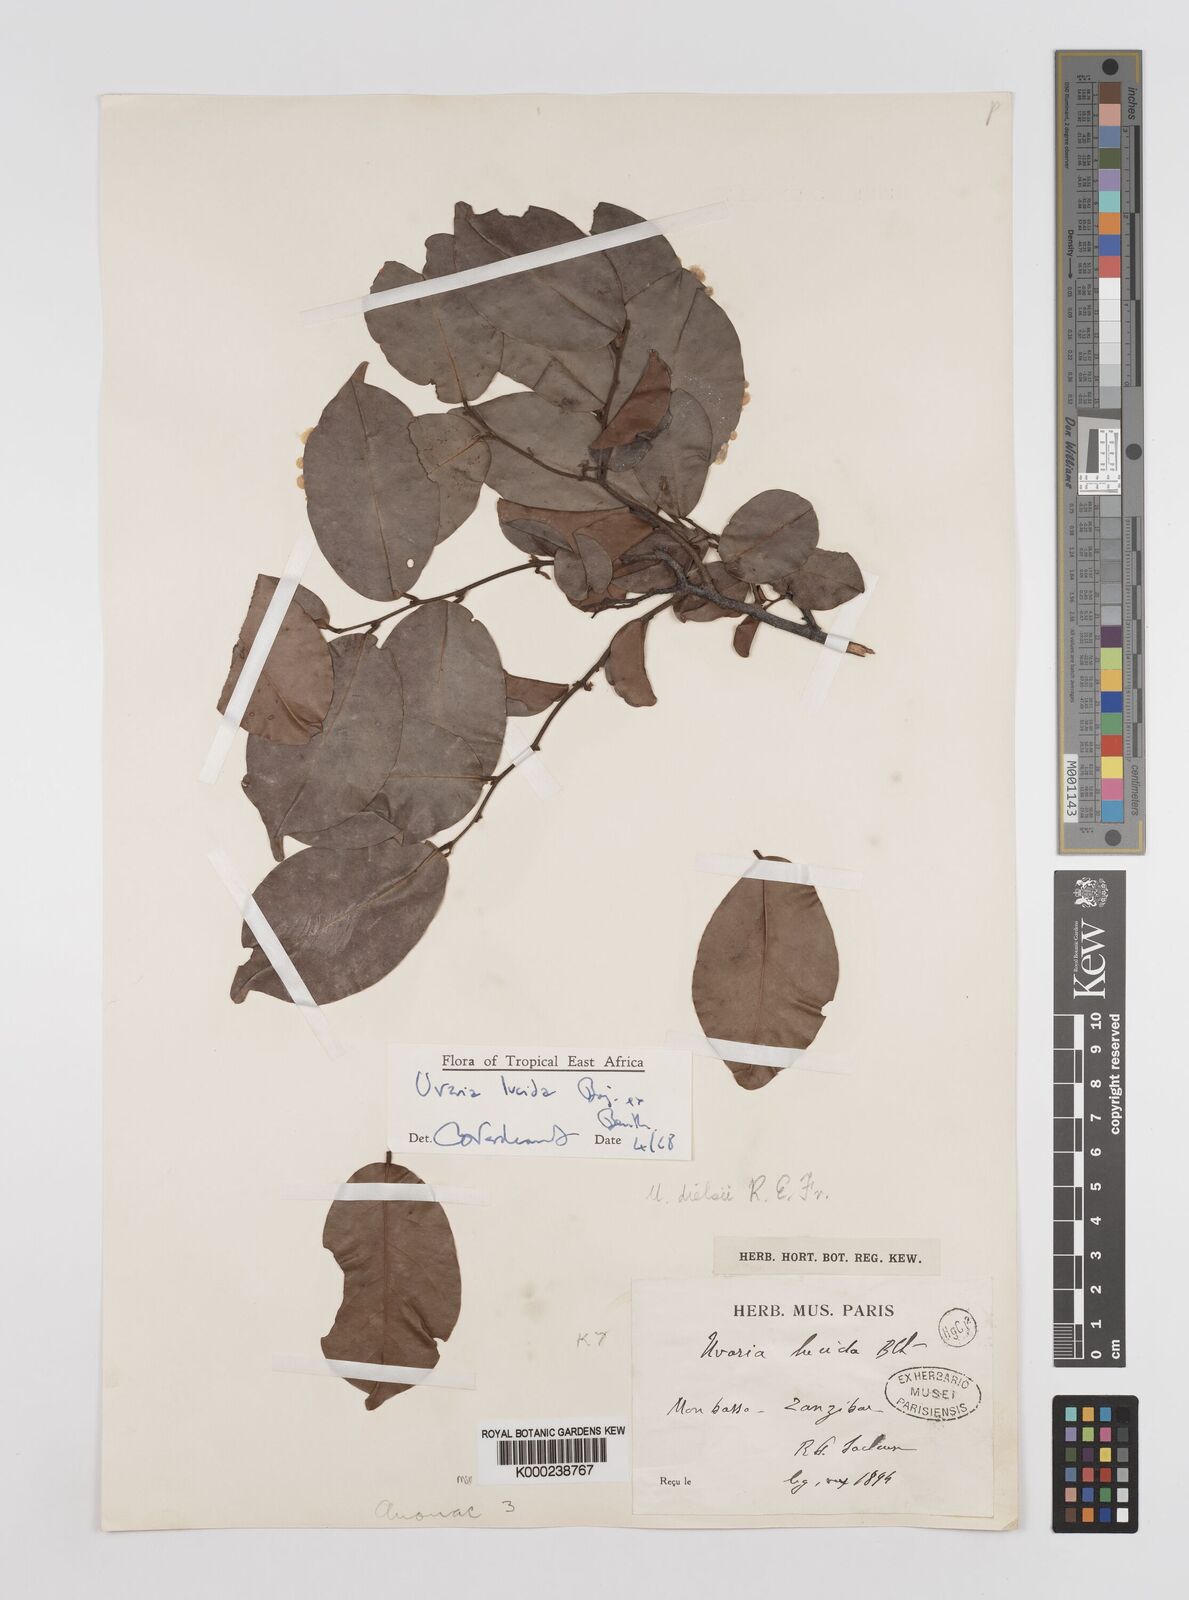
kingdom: Plantae
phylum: Tracheophyta
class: Magnoliopsida
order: Magnoliales
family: Annonaceae
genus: Uvaria
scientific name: Uvaria lucida
